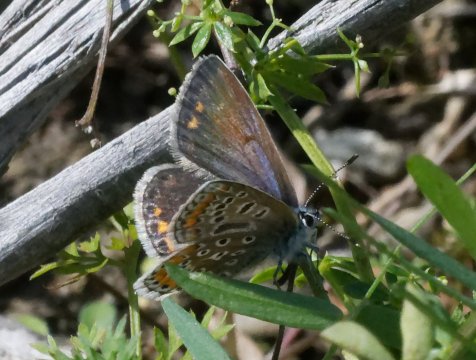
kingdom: Animalia
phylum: Arthropoda
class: Insecta
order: Lepidoptera
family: Lycaenidae
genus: Polyommatus
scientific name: Polyommatus icarus
